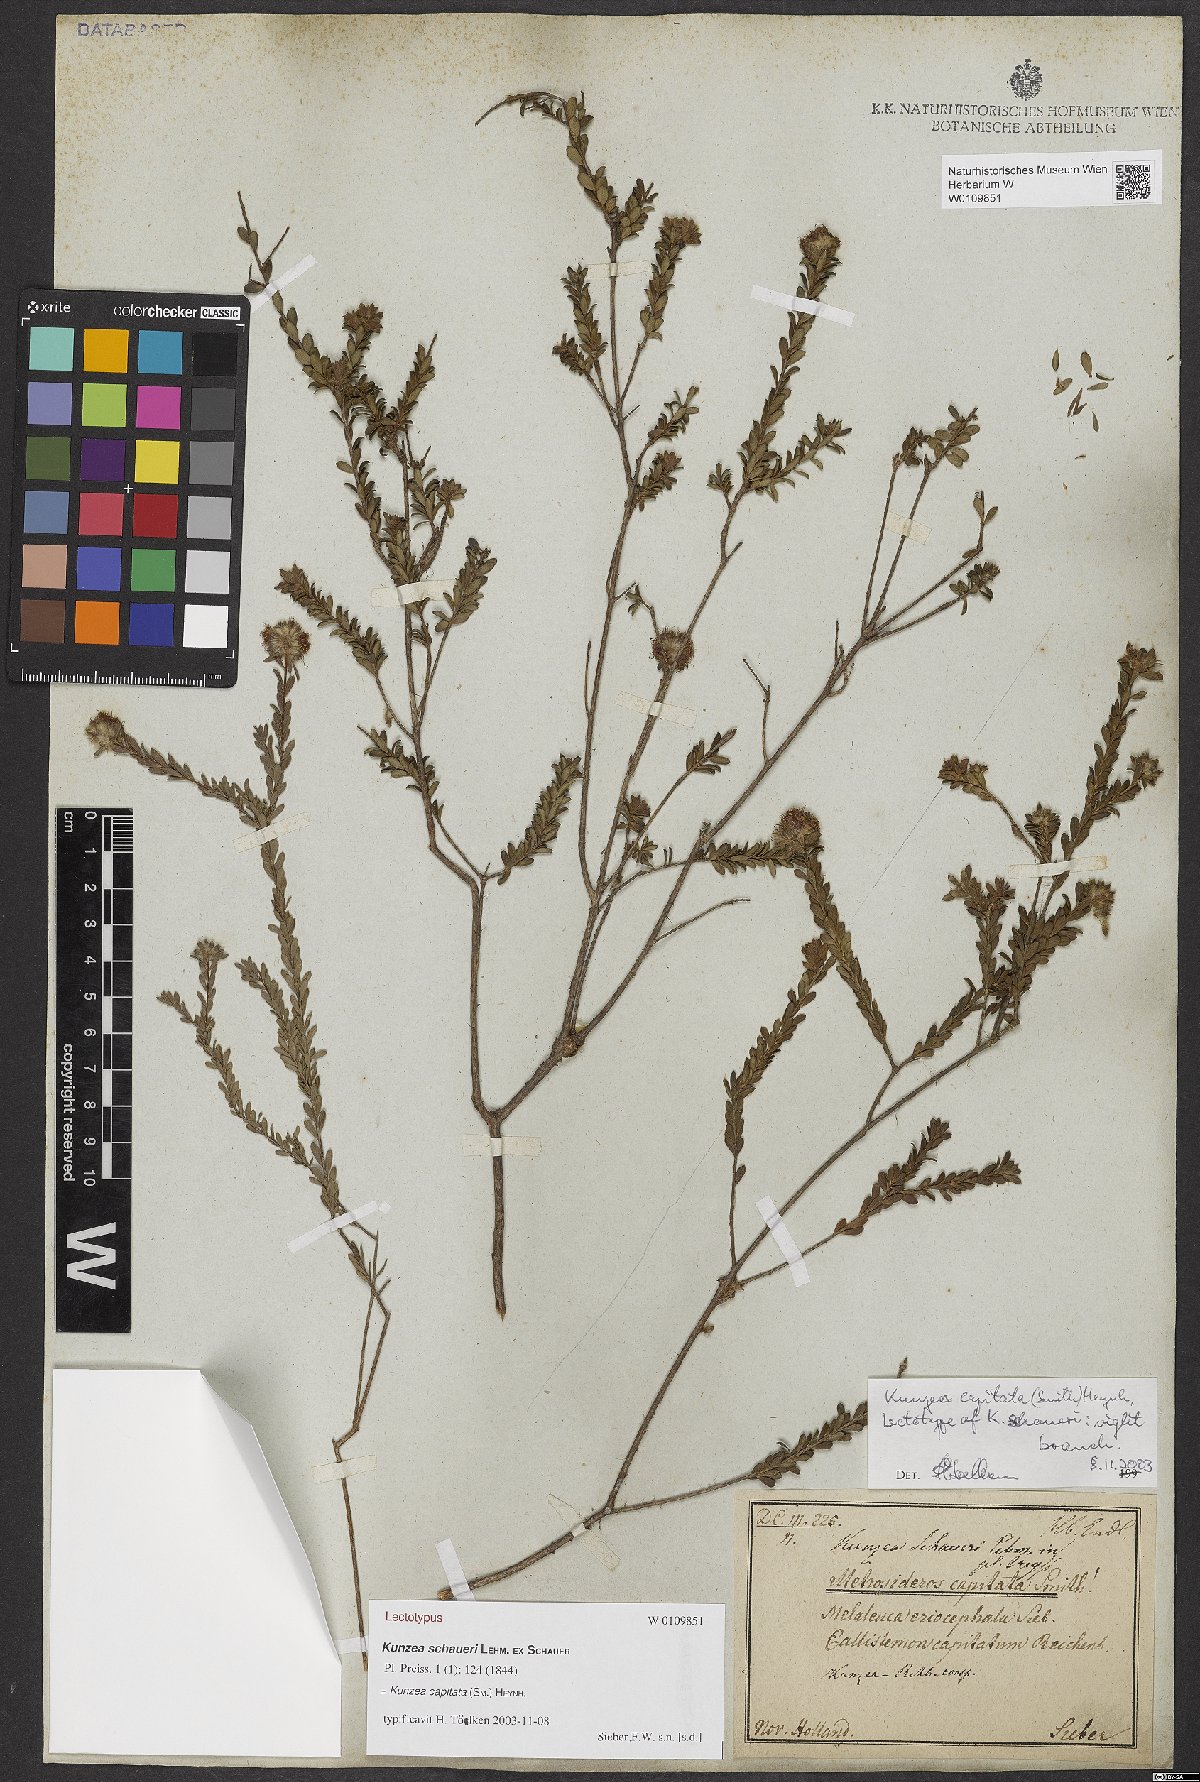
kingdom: Plantae
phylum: Tracheophyta
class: Magnoliopsida
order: Myrtales
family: Myrtaceae
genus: Kunzea
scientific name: Kunzea capitata
